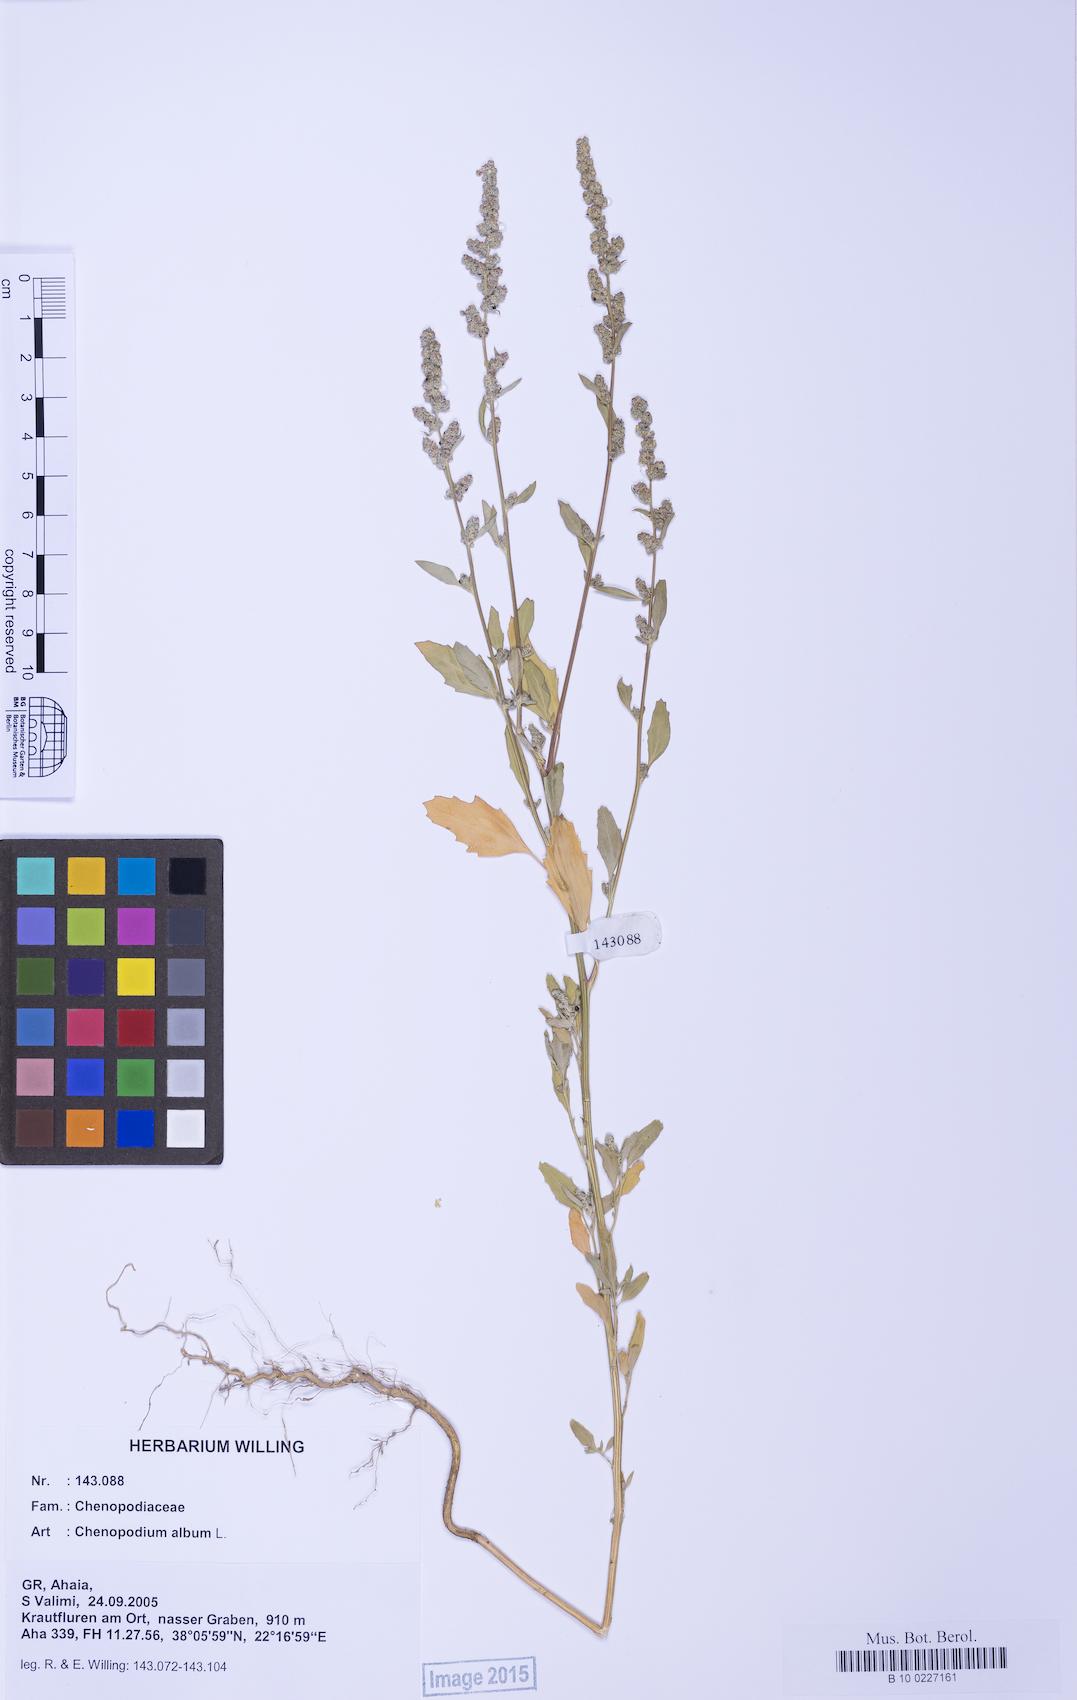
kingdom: Plantae
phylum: Tracheophyta
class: Magnoliopsida
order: Caryophyllales
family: Amaranthaceae
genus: Chenopodium
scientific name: Chenopodium album
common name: Fat-hen
